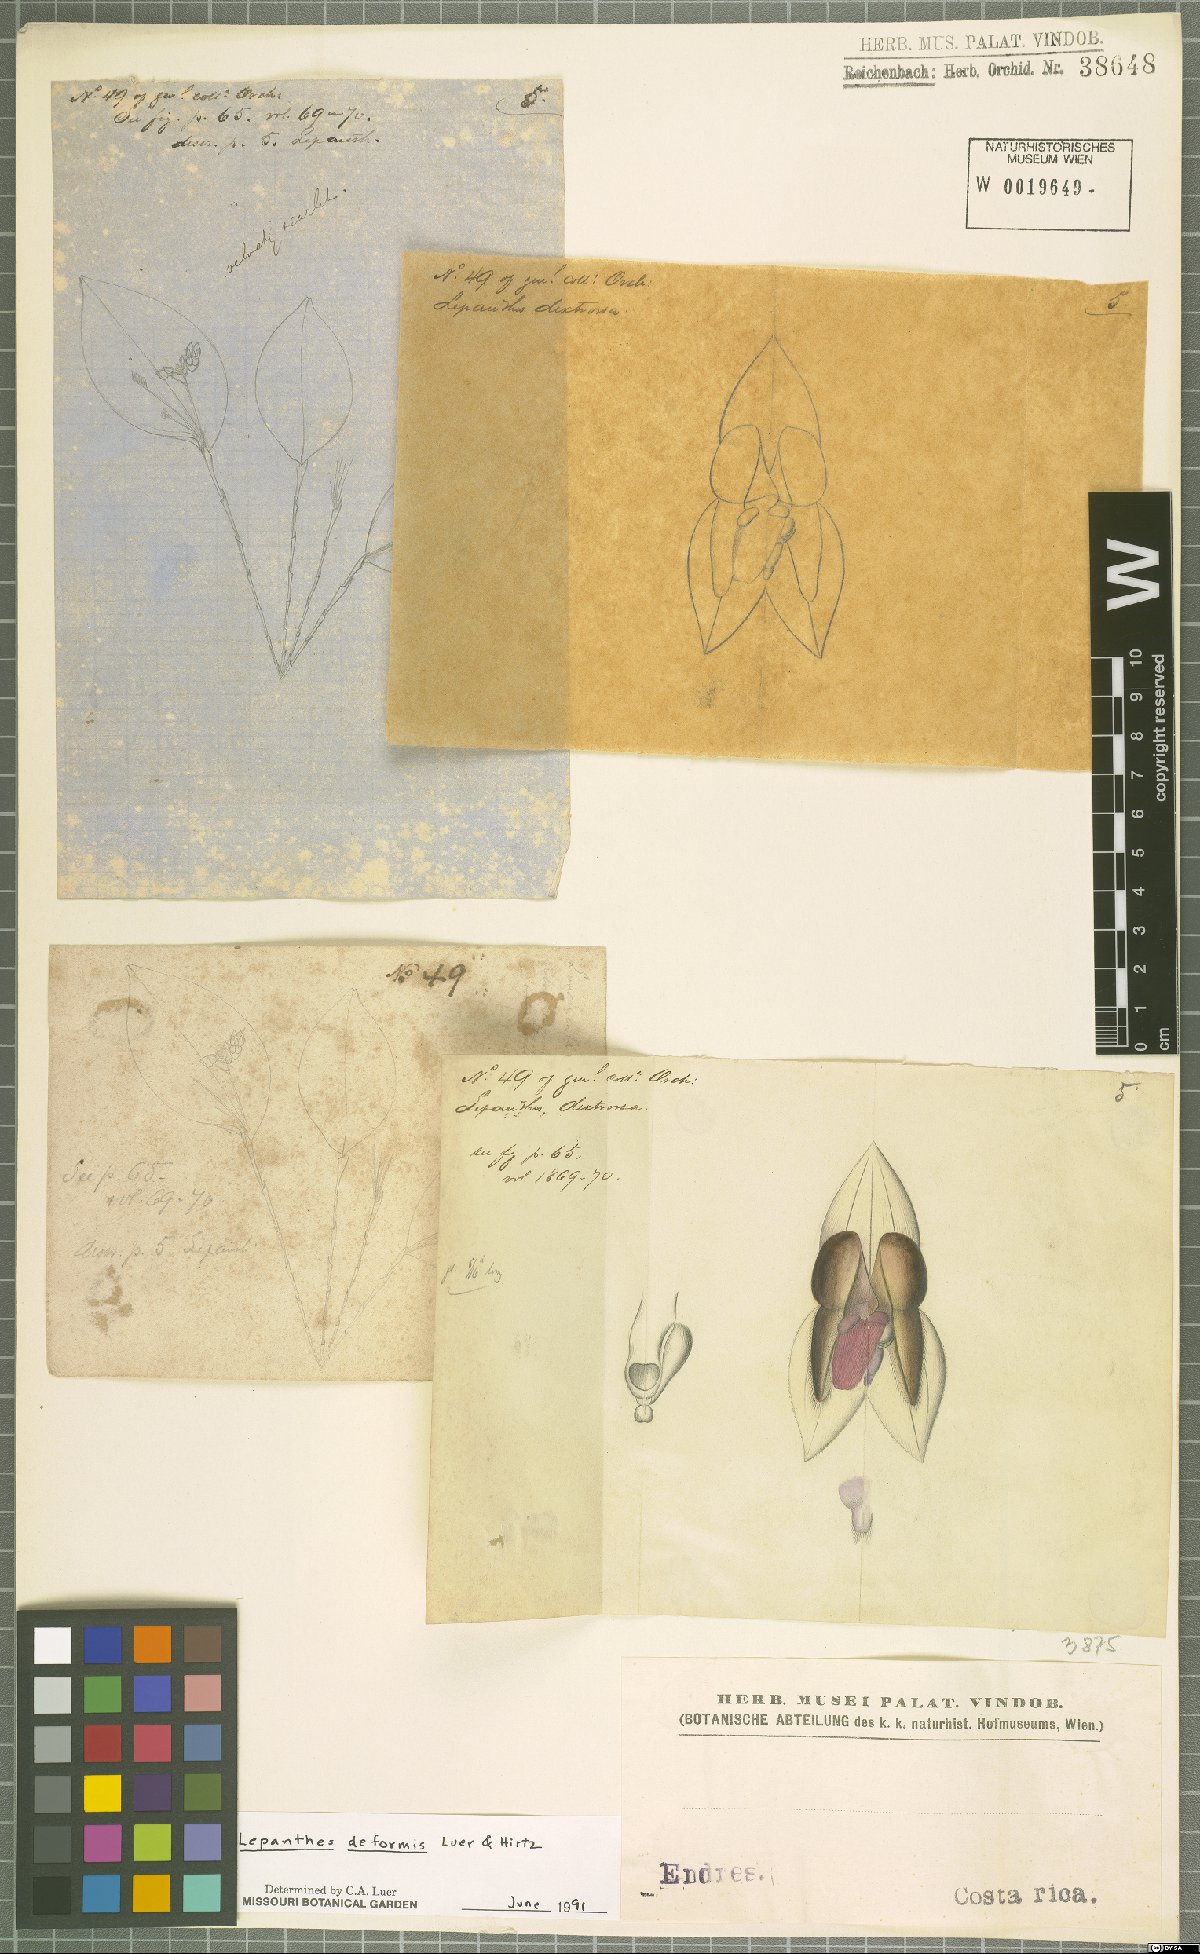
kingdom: Plantae
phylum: Tracheophyta
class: Liliopsida
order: Asparagales
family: Orchidaceae
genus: Lepanthes
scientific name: Lepanthes deformis
